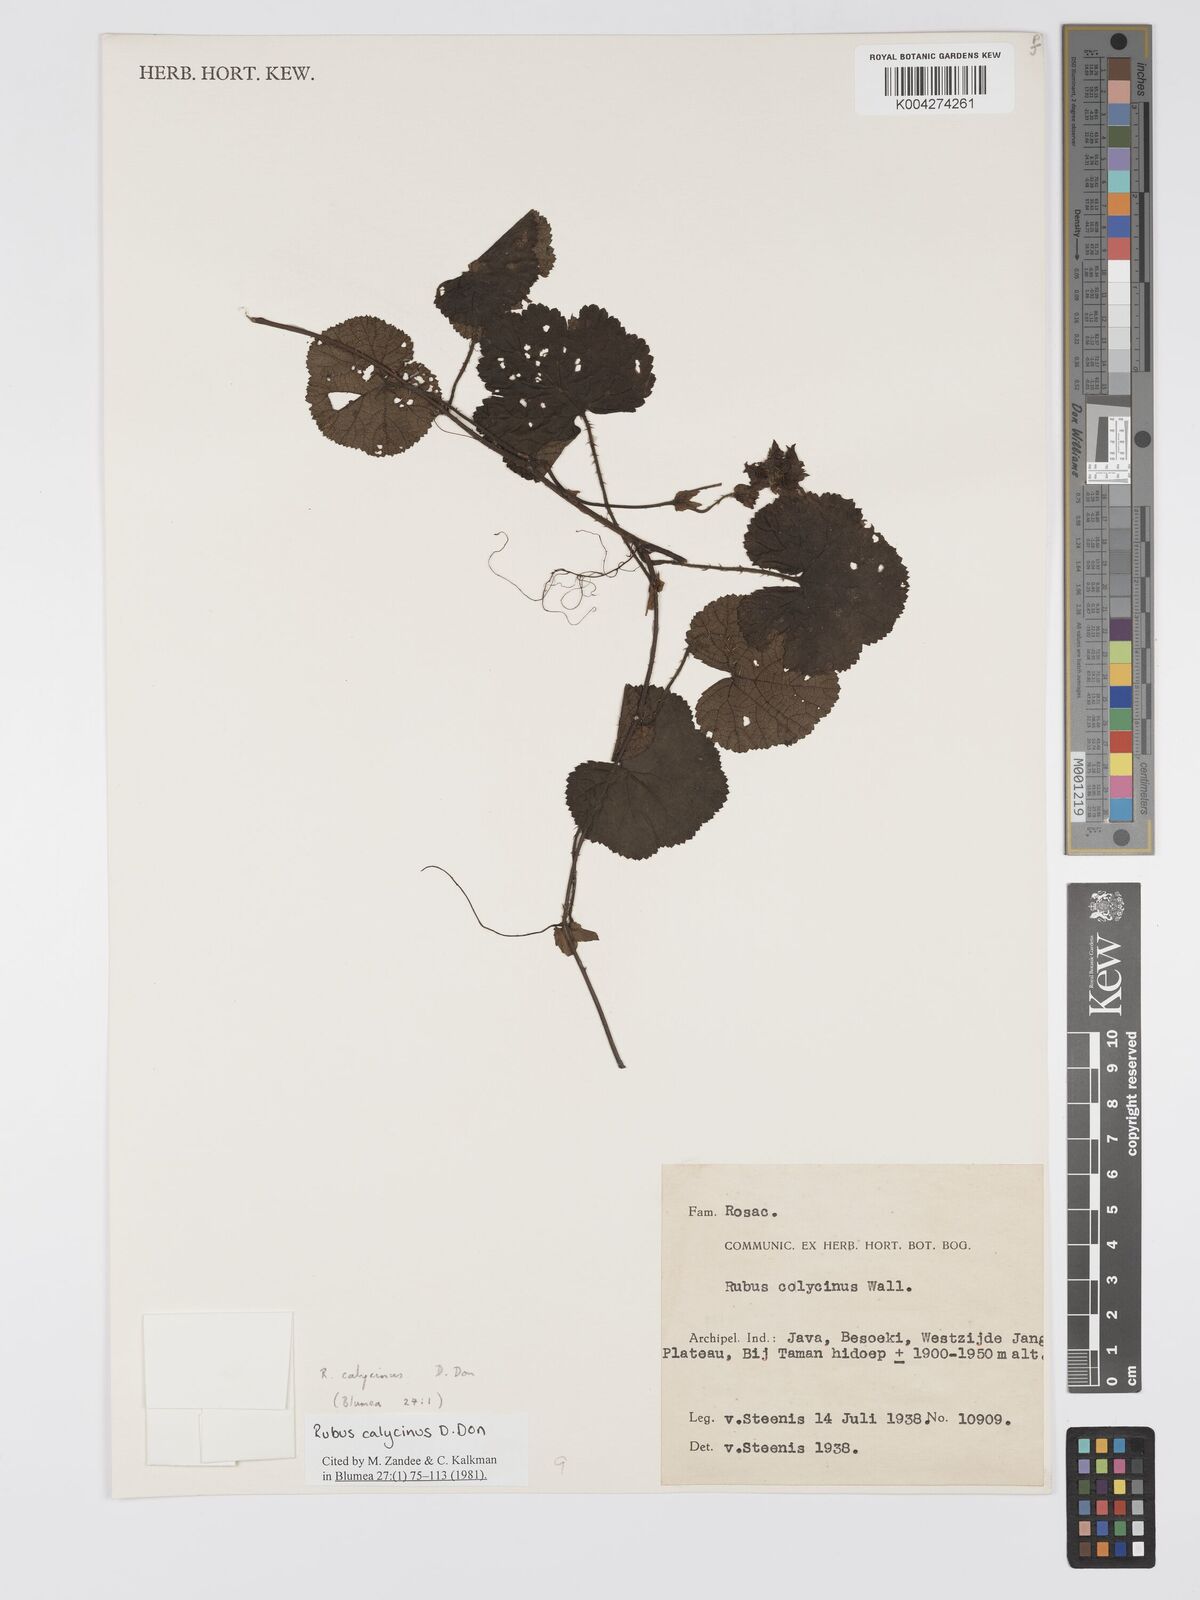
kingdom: Plantae
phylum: Tracheophyta
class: Magnoliopsida
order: Rosales
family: Rosaceae
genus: Rubus
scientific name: Rubus calycinus
